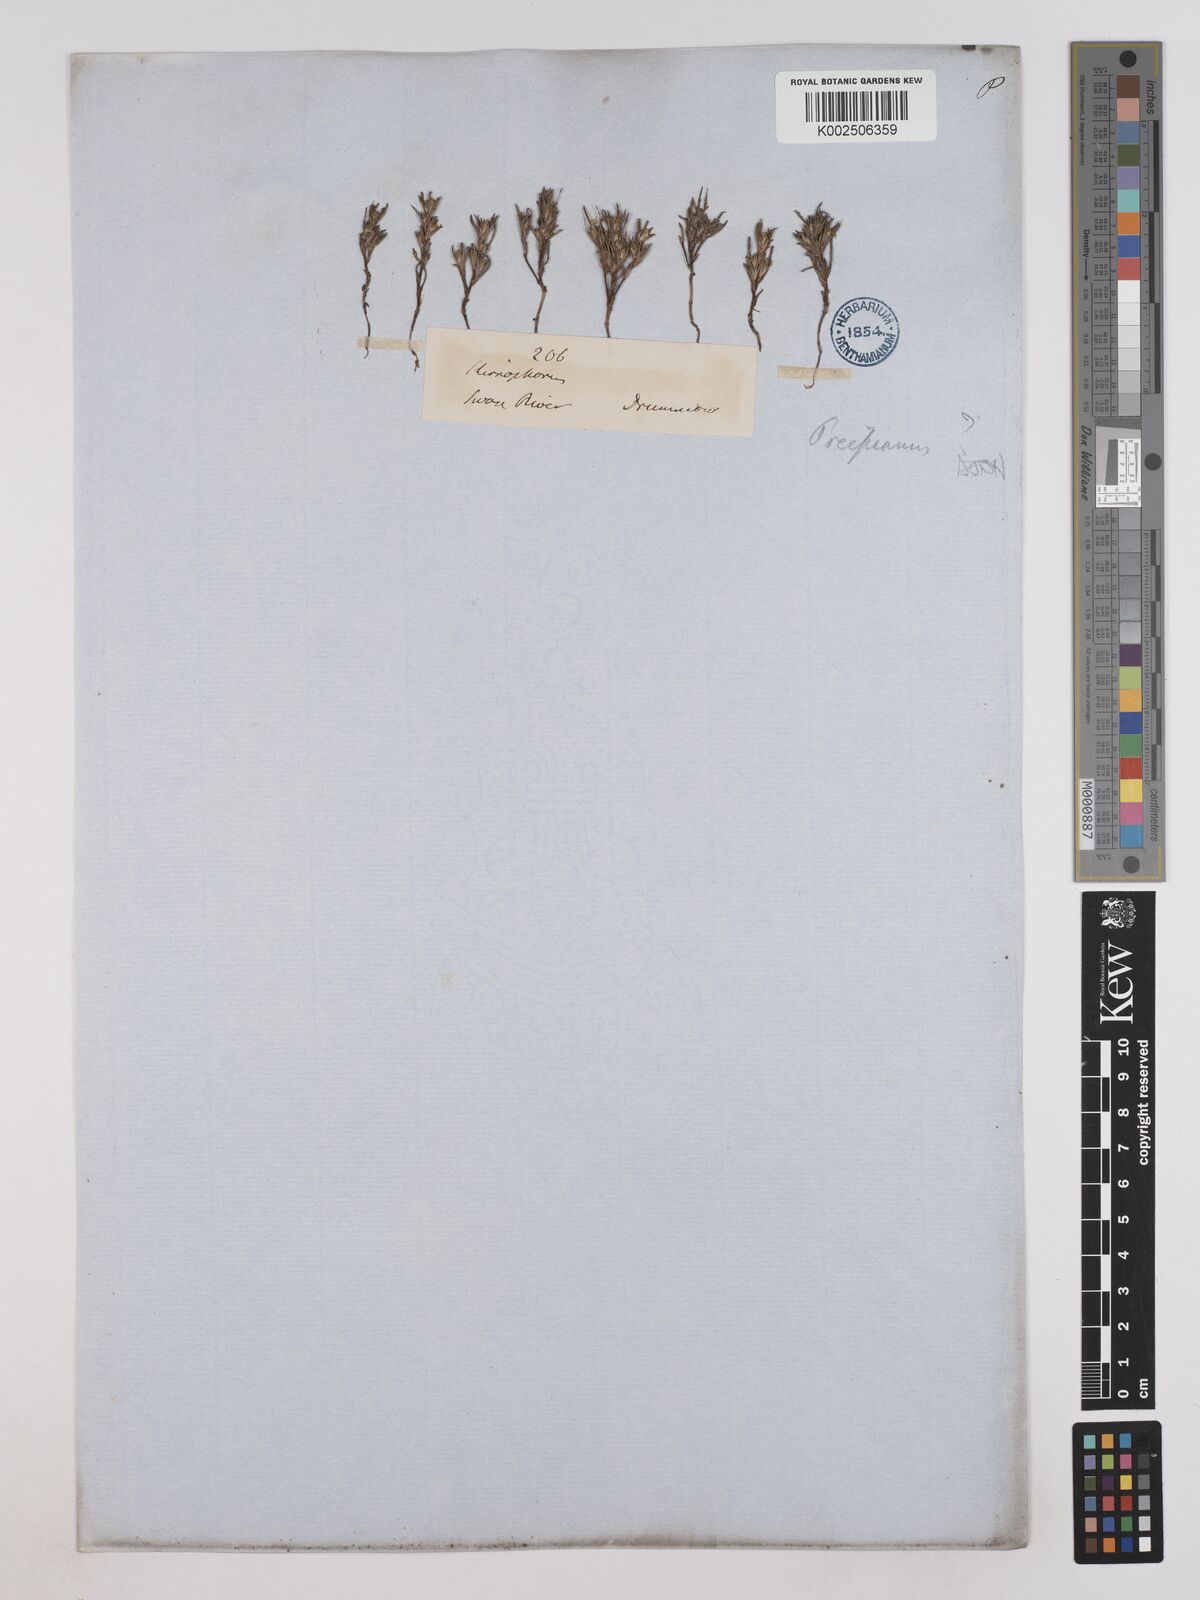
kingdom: Plantae
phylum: Tracheophyta
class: Magnoliopsida
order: Asterales
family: Asteraceae
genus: Angianthus
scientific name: Angianthus preissianus
